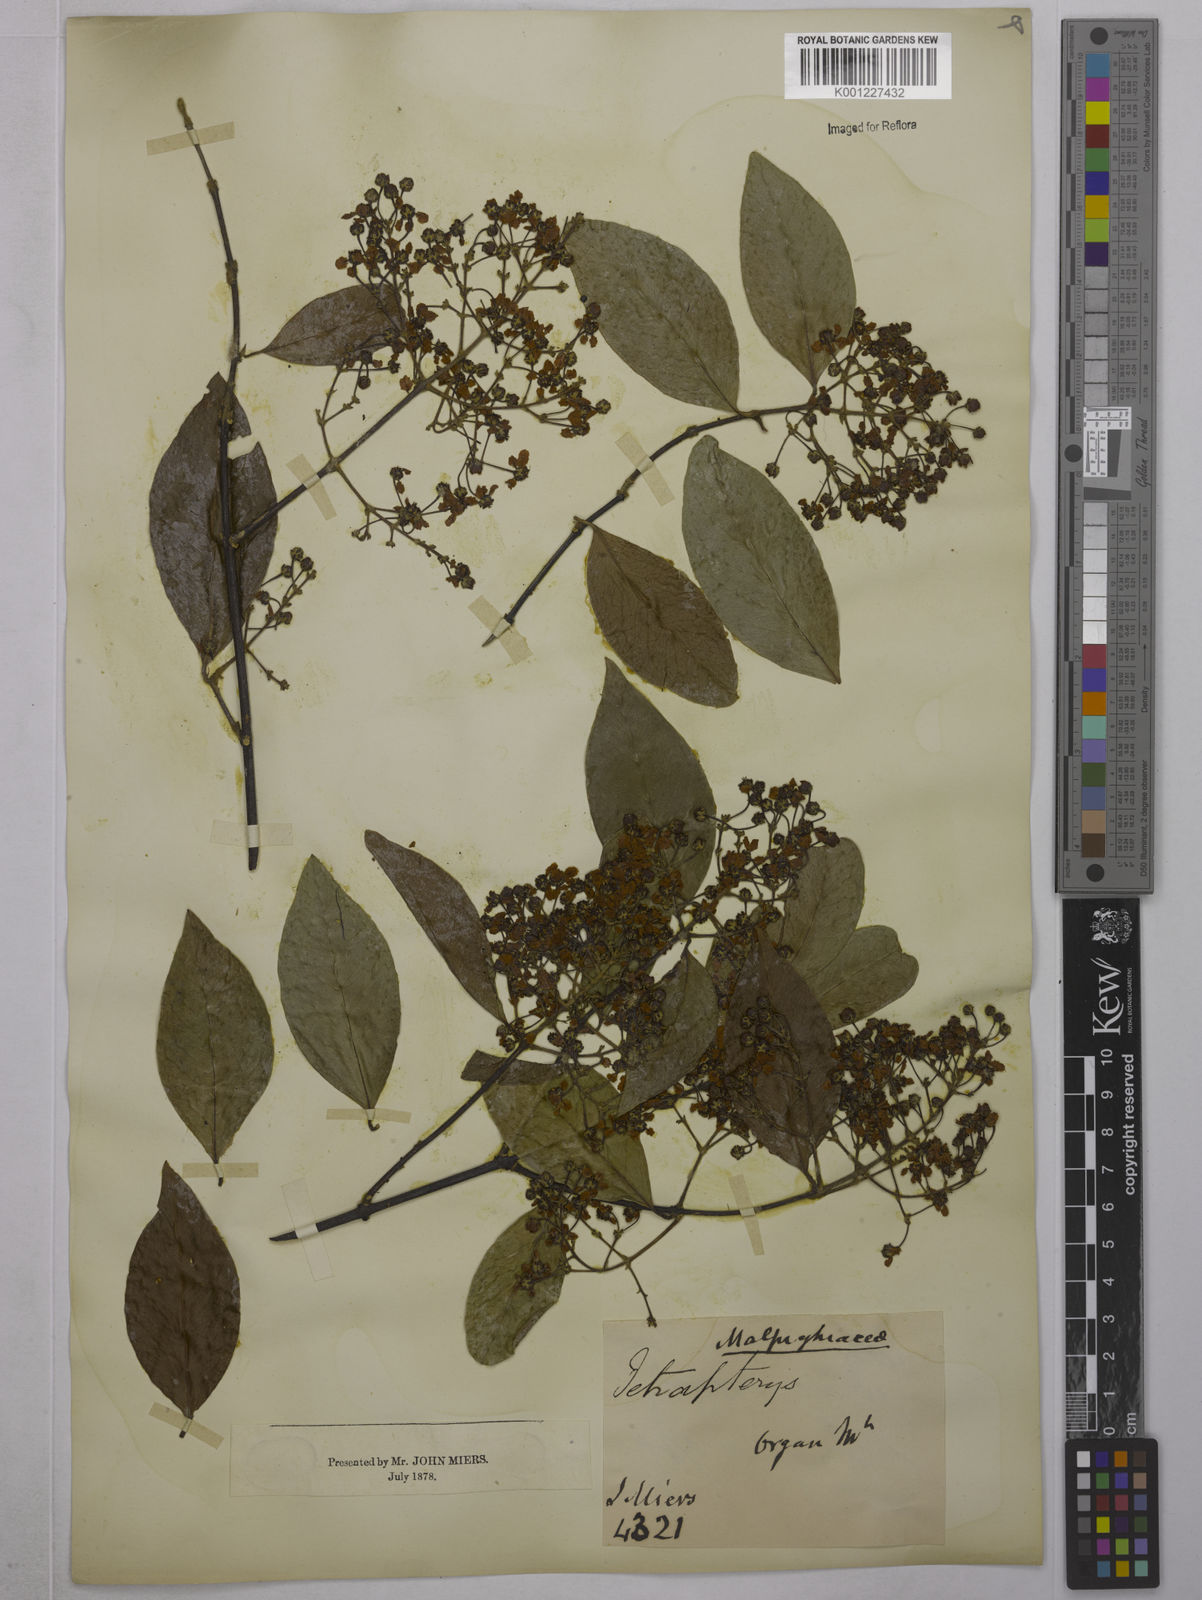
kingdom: Plantae
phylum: Tracheophyta
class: Magnoliopsida
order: Malpighiales
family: Malpighiaceae
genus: Tetrapterys
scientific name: Tetrapterys
